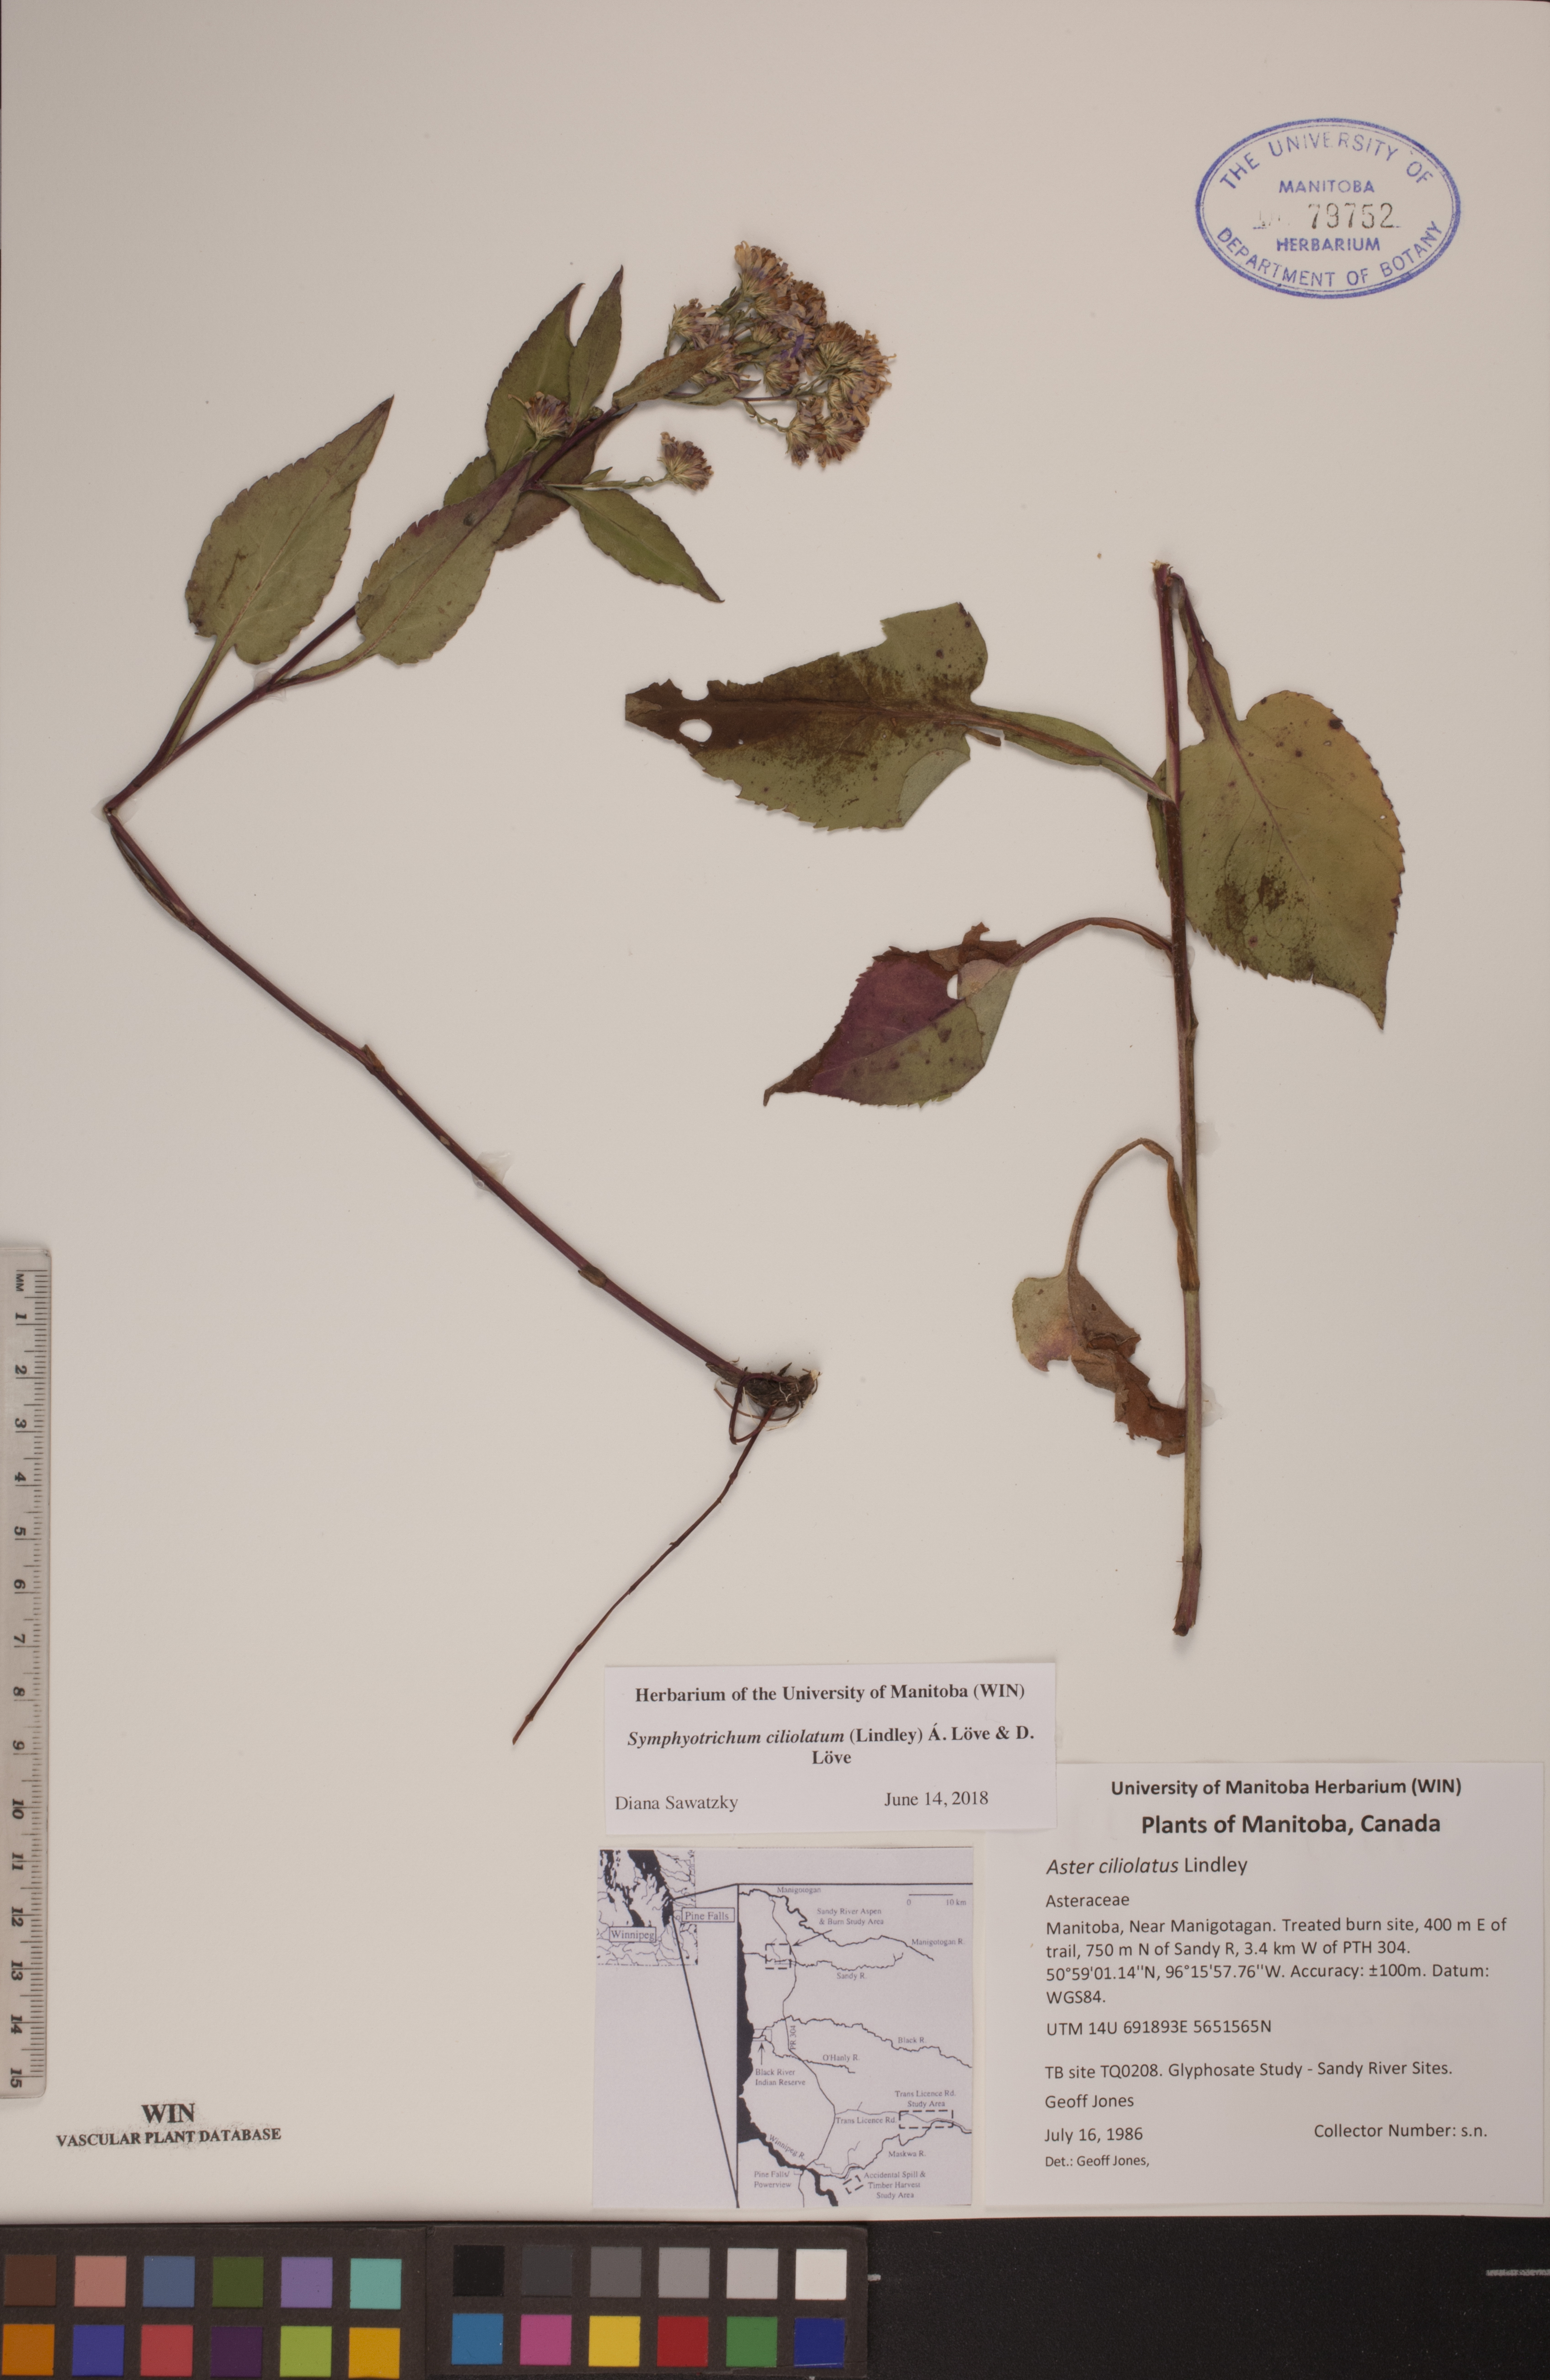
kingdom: Plantae
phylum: Tracheophyta
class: Magnoliopsida
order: Asterales
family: Asteraceae
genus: Symphyotrichum
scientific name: Symphyotrichum ciliolatum
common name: Fringed blue aster
